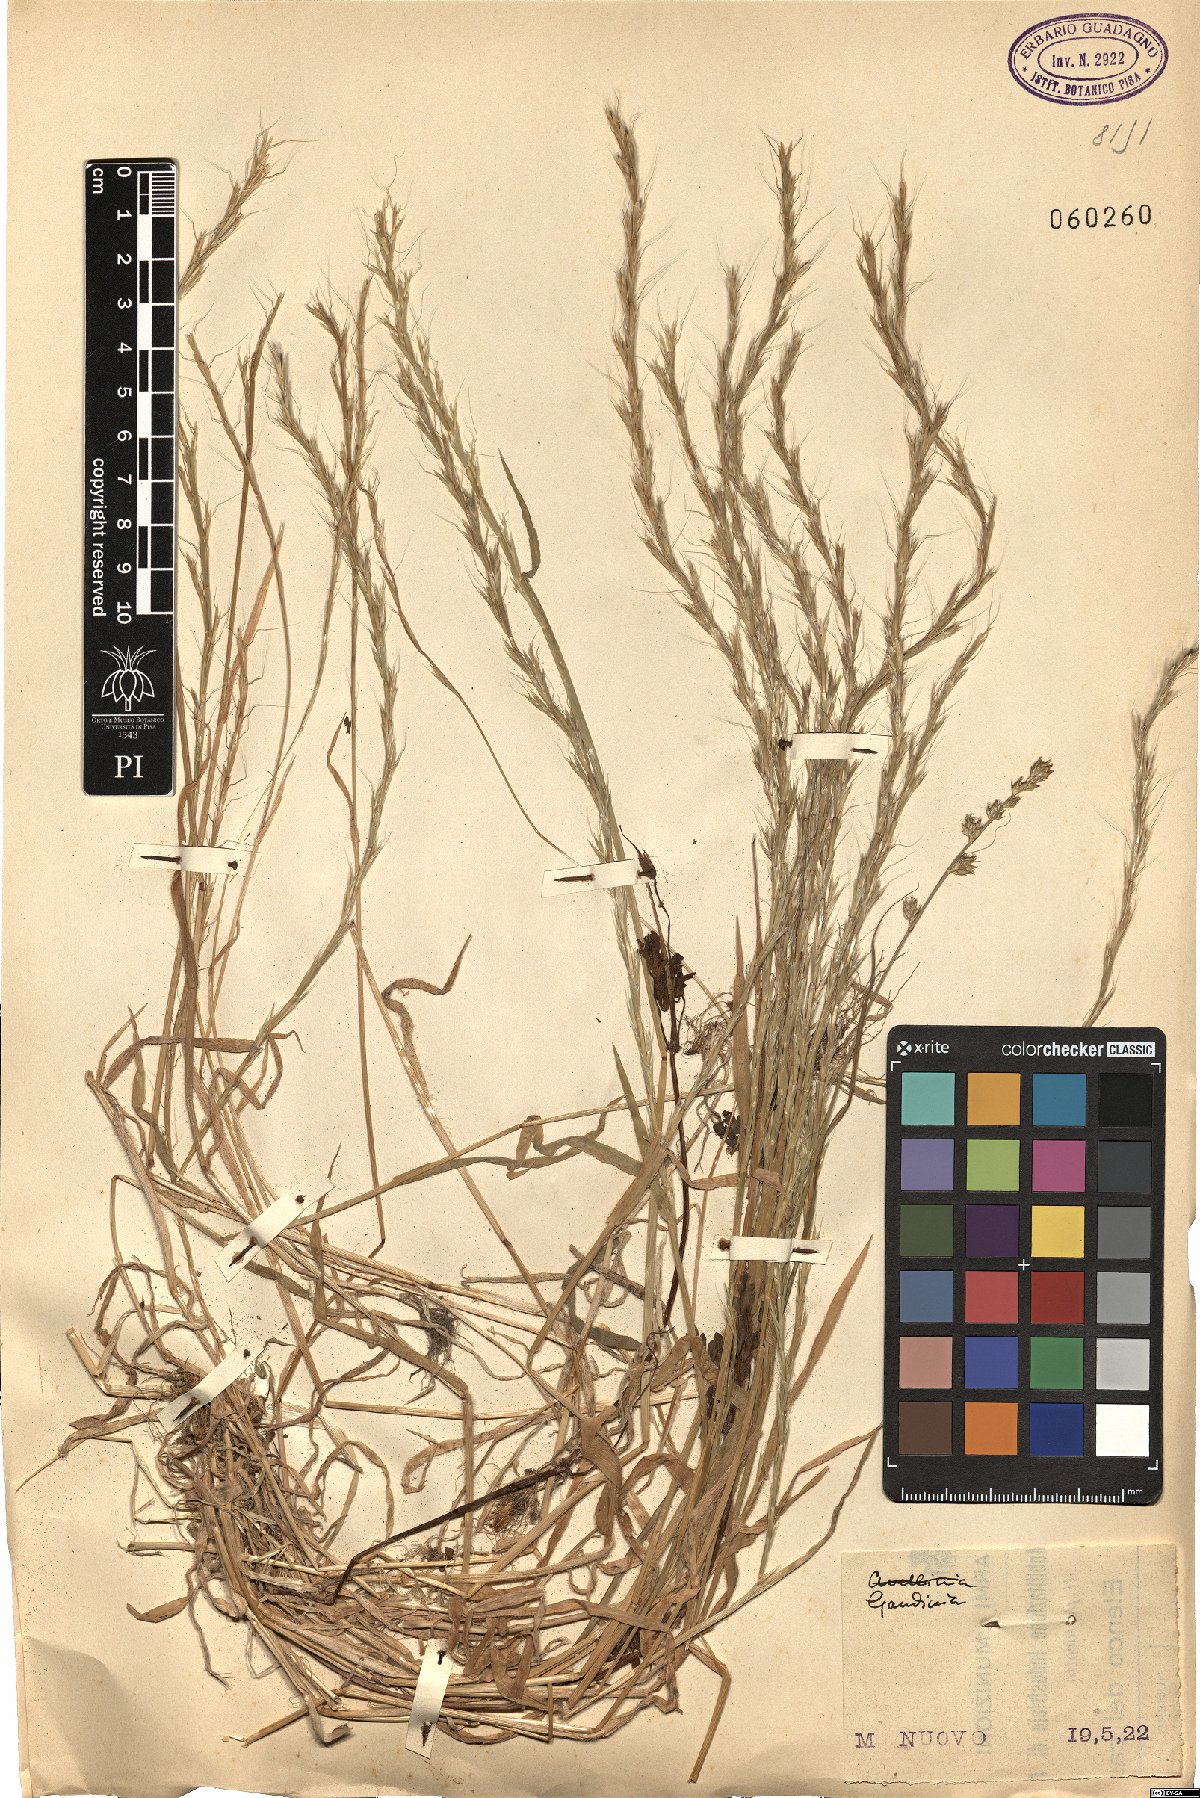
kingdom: Plantae
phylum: Tracheophyta
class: Liliopsida
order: Poales
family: Poaceae
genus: Gaudinia
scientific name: Gaudinia
